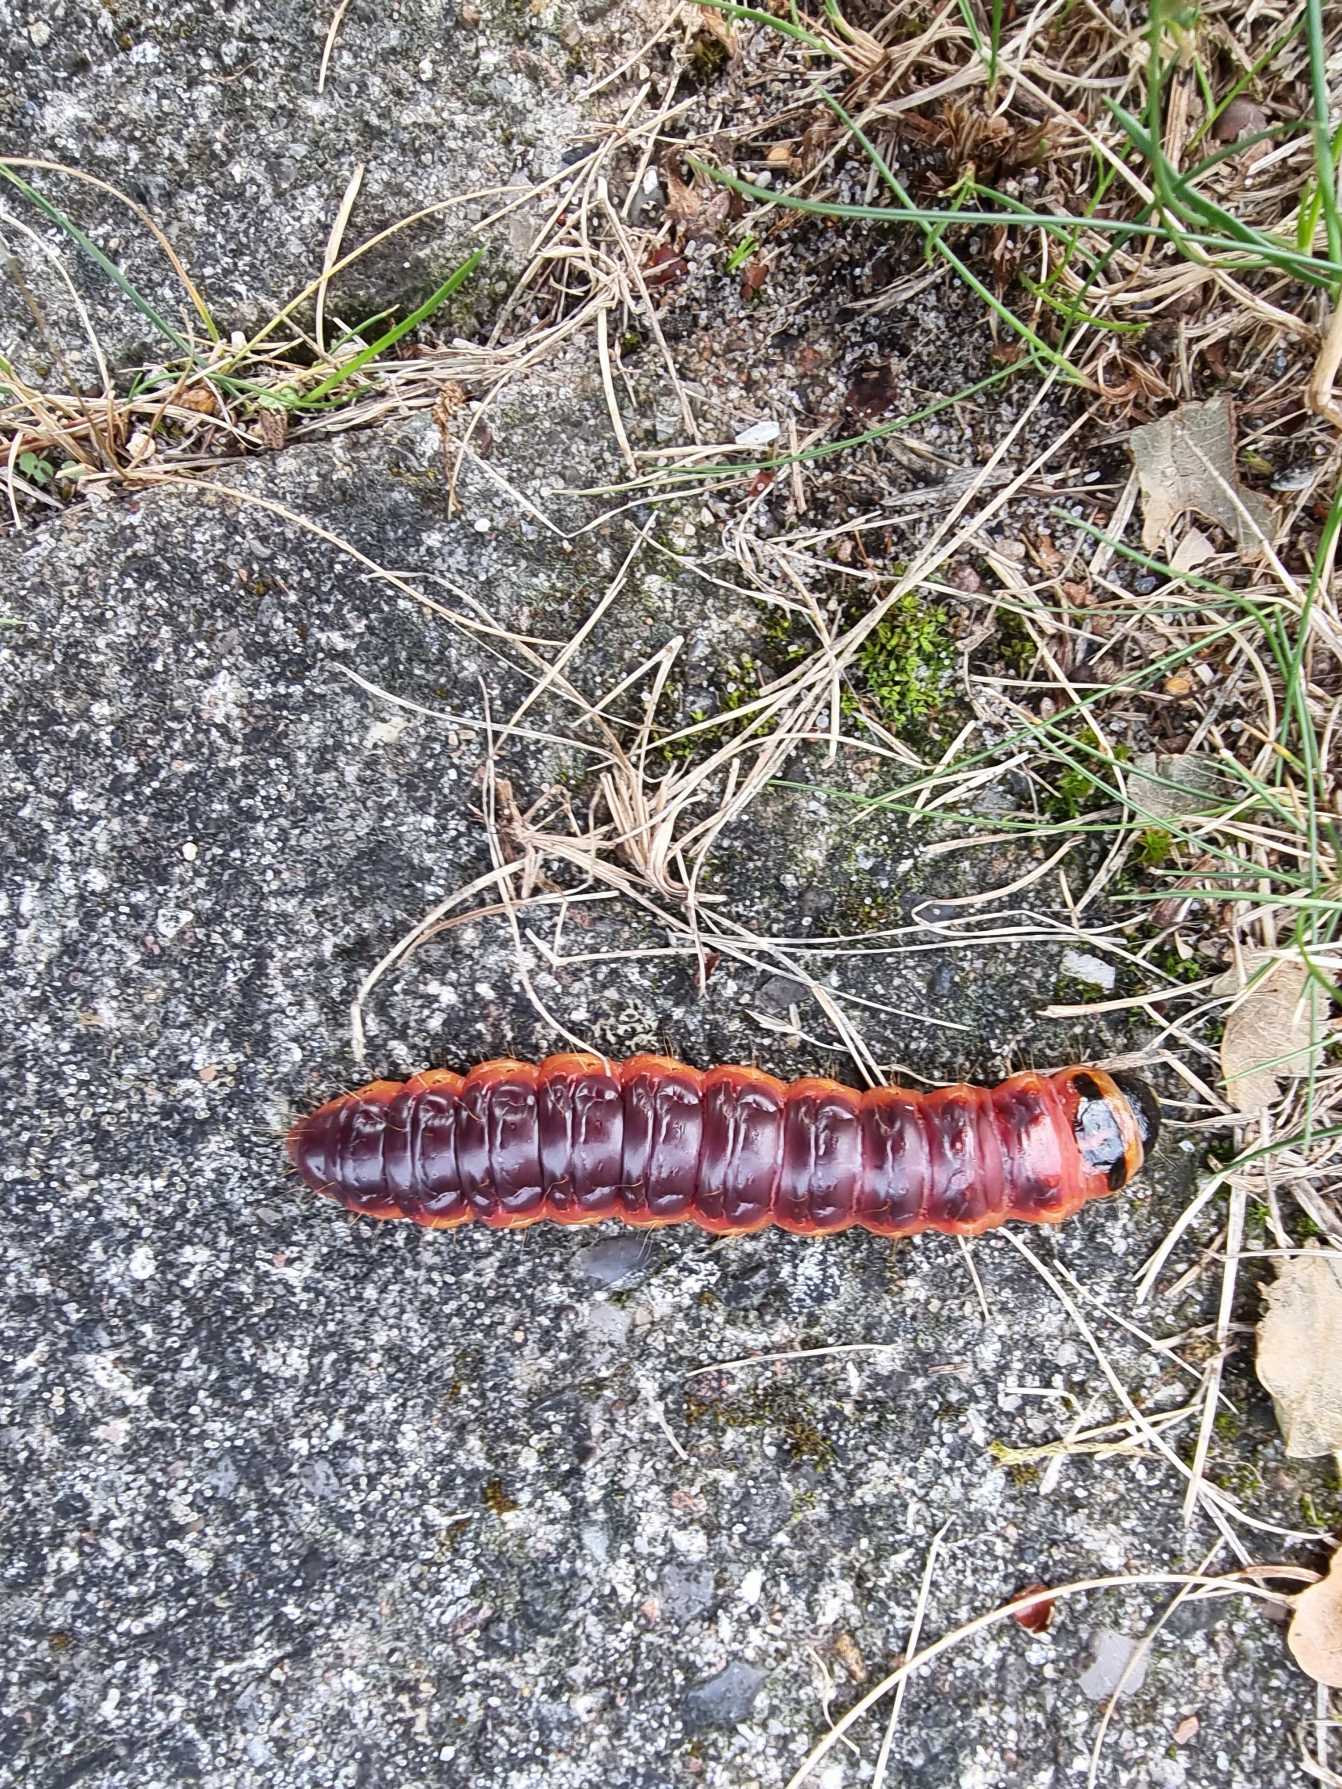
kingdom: Animalia
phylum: Arthropoda
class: Insecta
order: Lepidoptera
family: Cossidae
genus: Cossus
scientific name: Cossus cossus
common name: Pileborer
